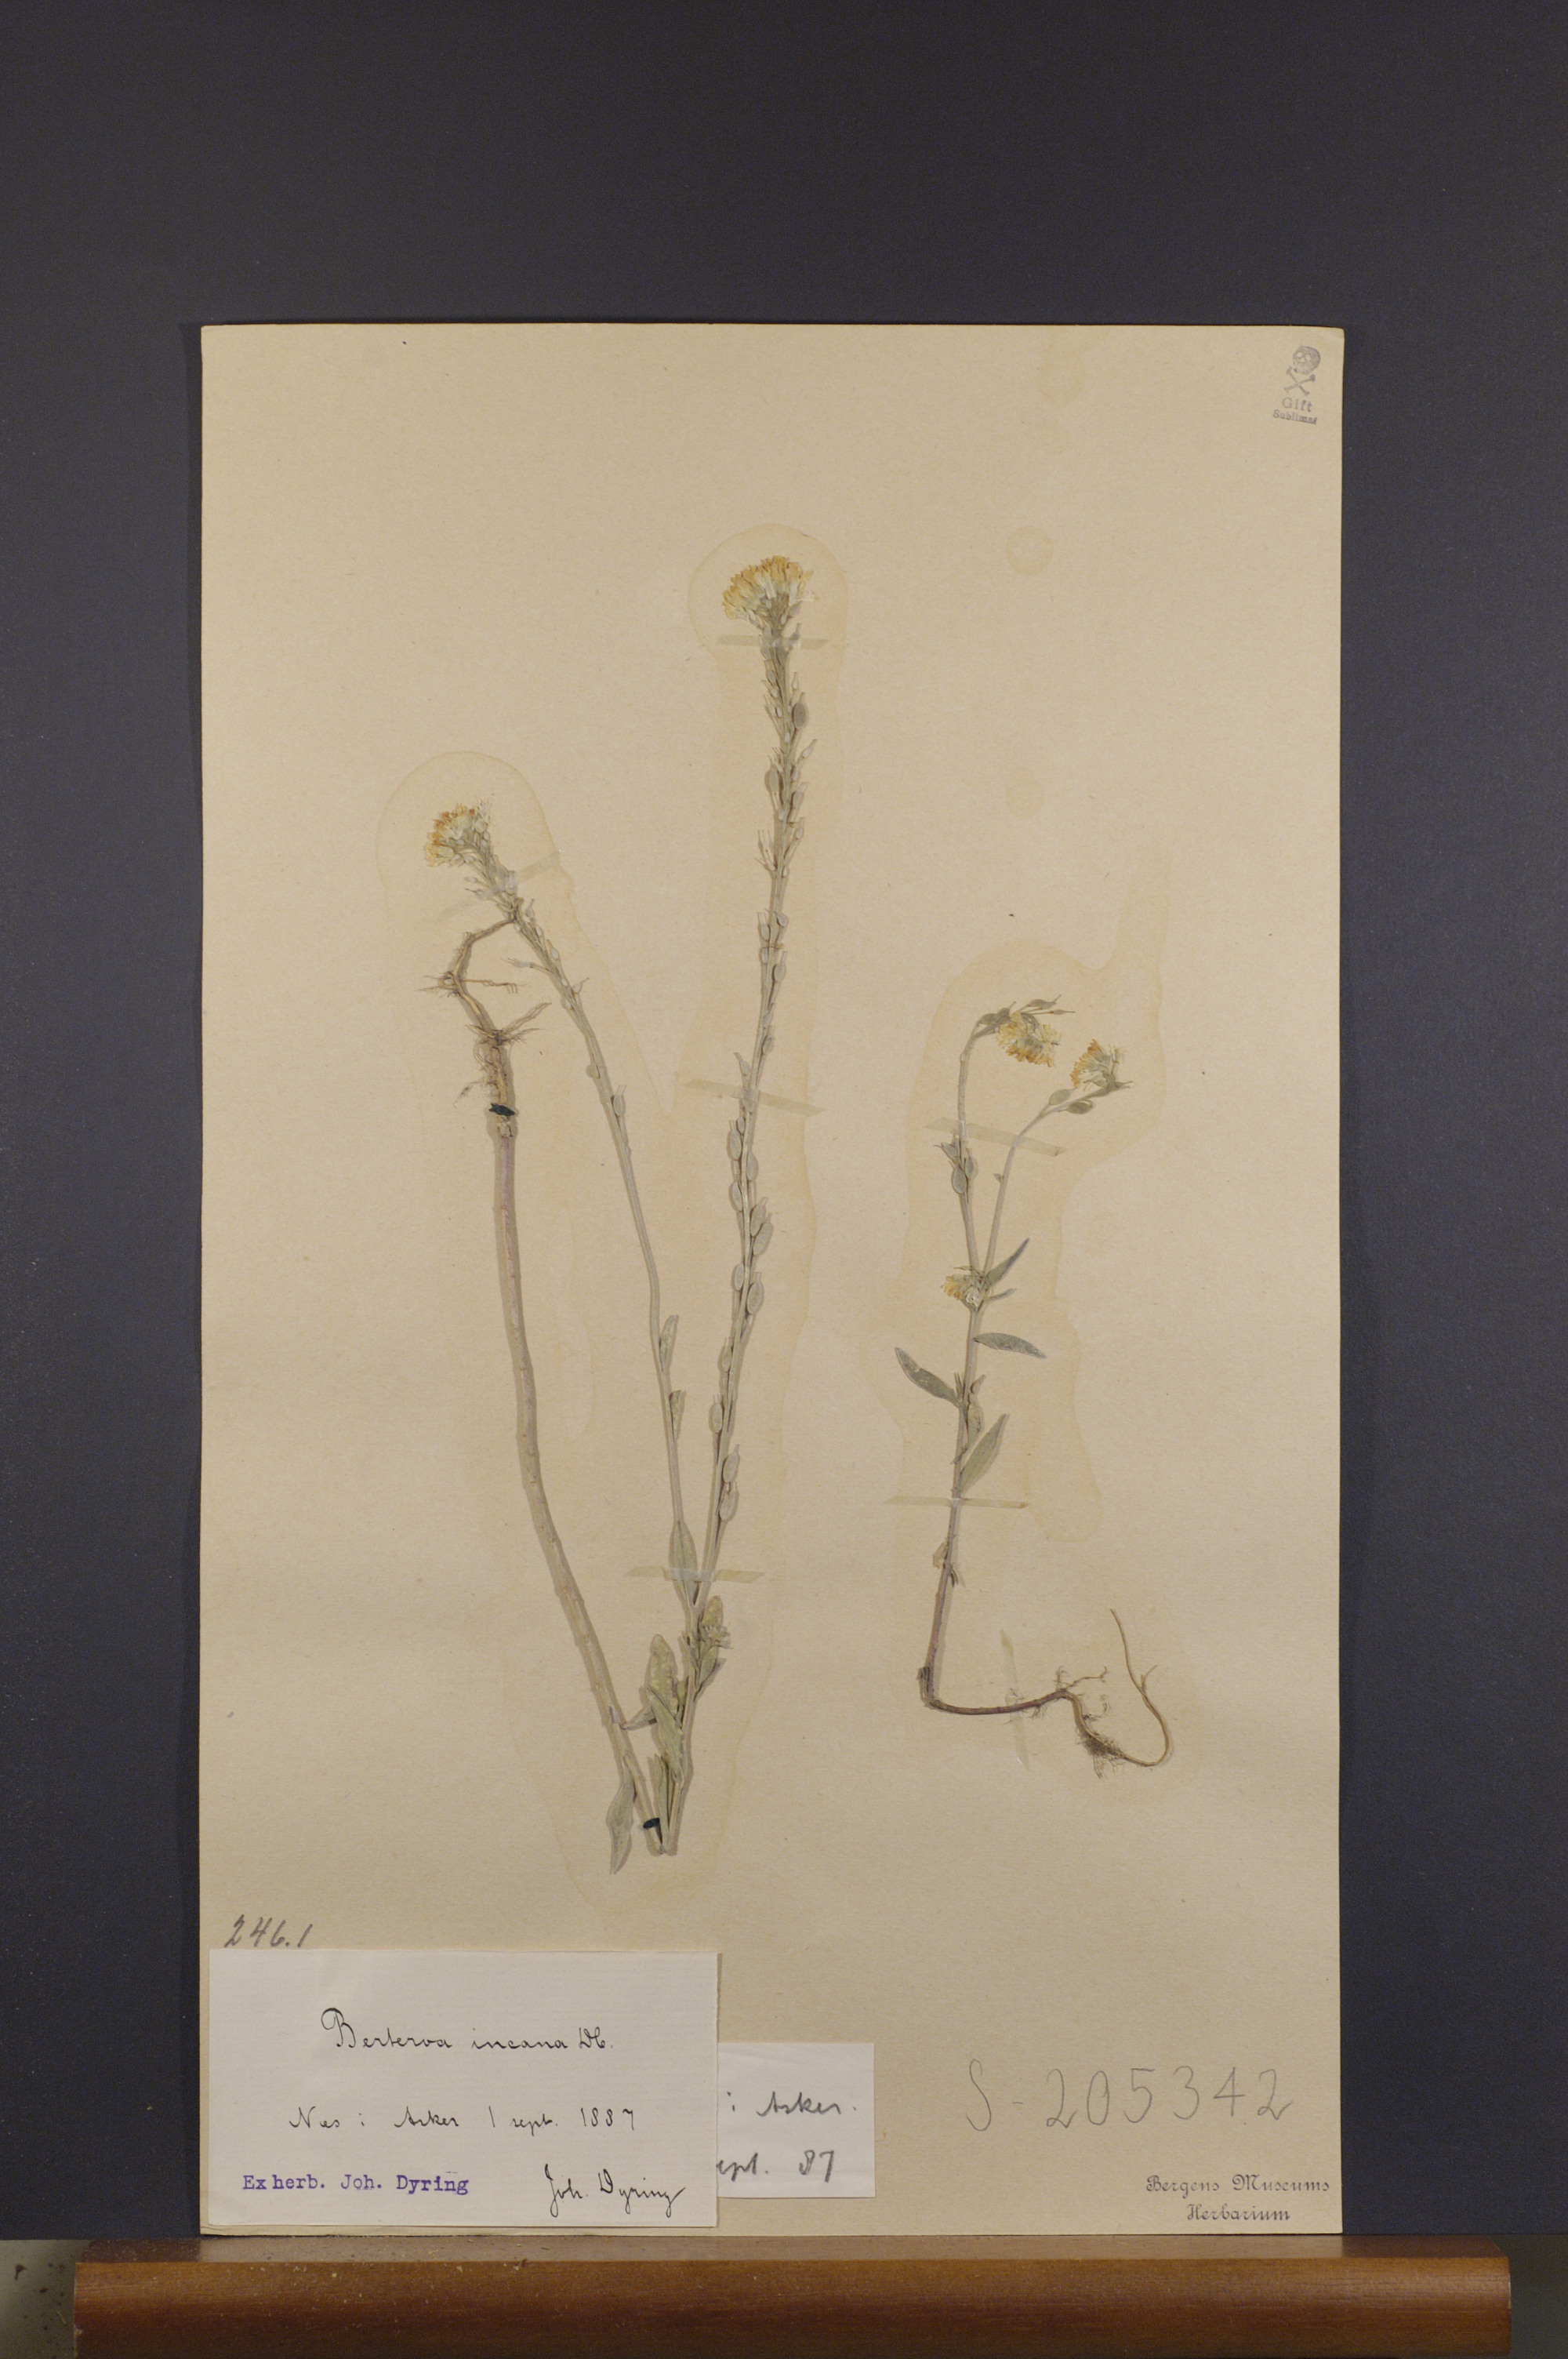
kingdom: Plantae
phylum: Tracheophyta
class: Magnoliopsida
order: Brassicales
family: Brassicaceae
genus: Berteroa
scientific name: Berteroa incana
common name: Hoary alison
